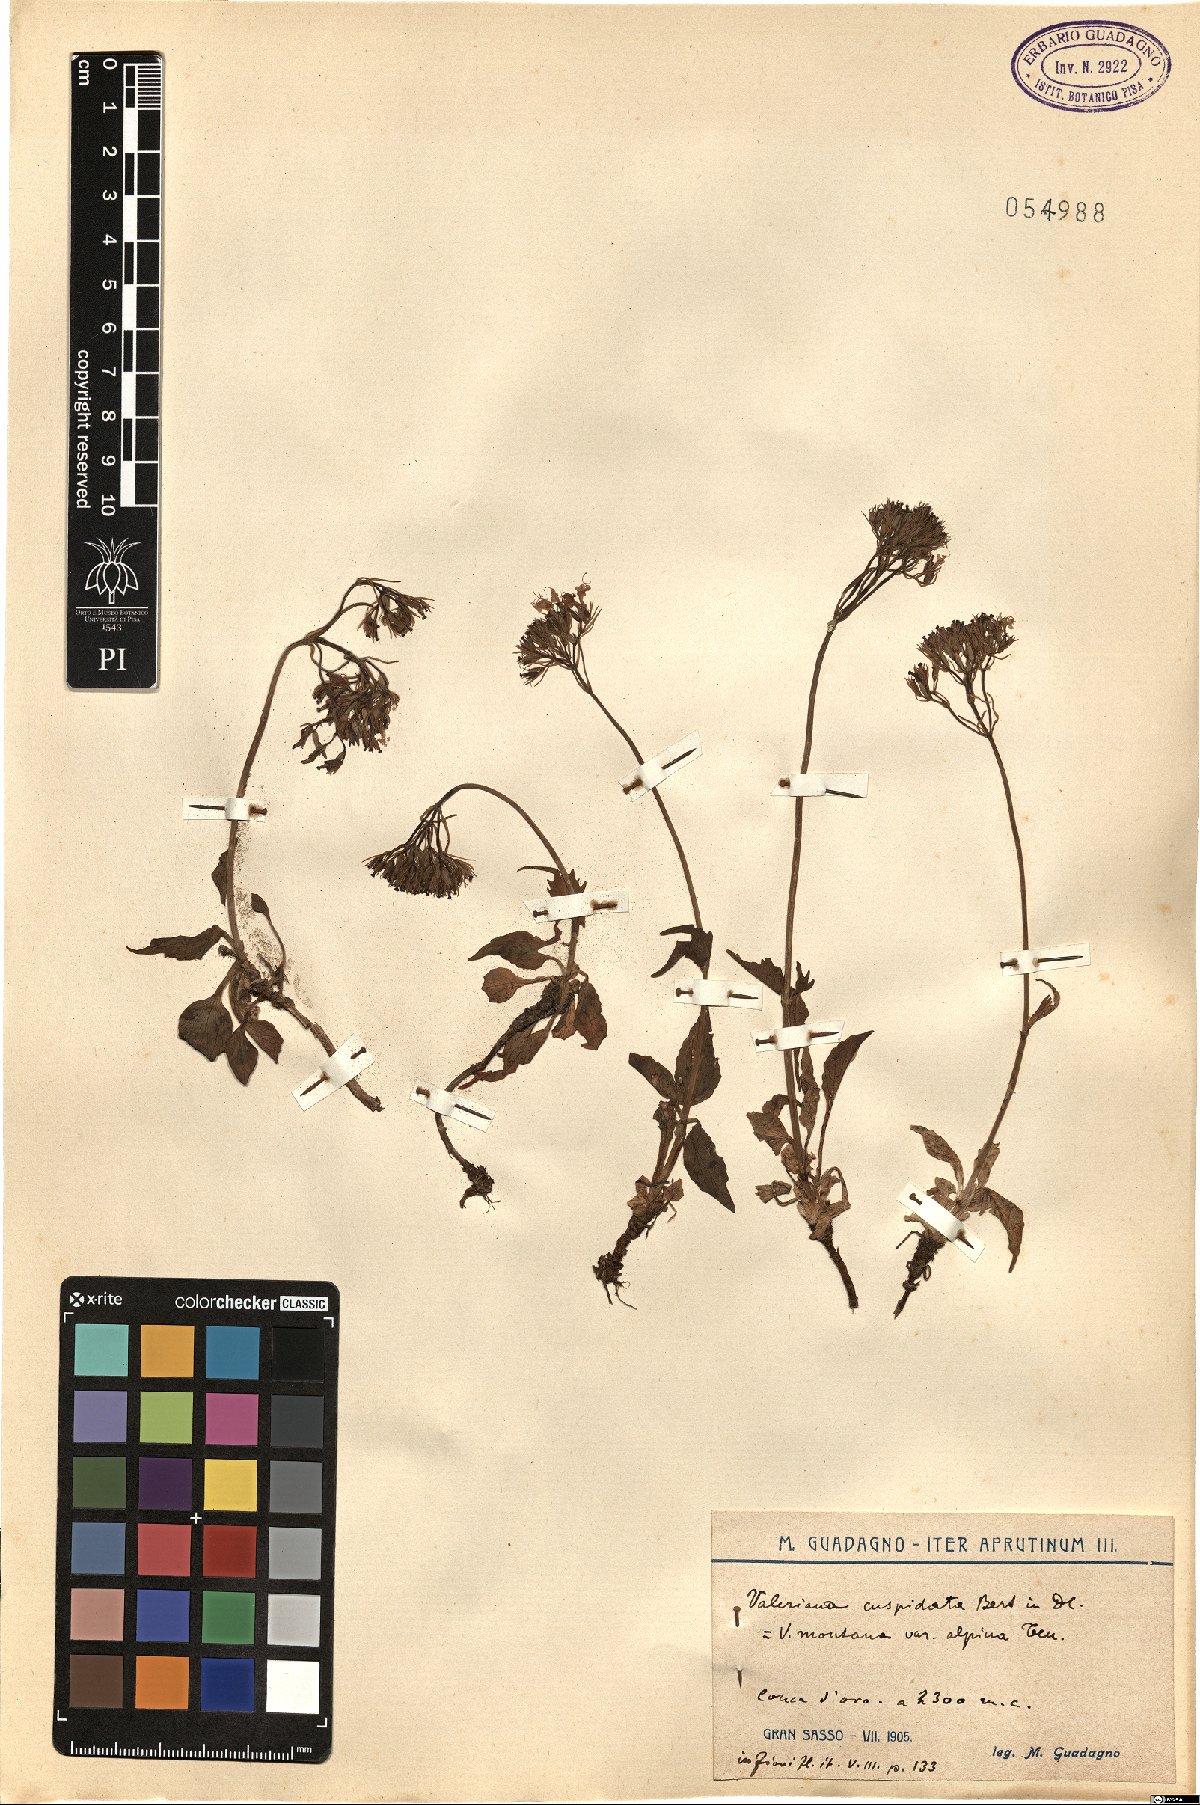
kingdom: Plantae
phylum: Tracheophyta
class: Magnoliopsida
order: Dipsacales
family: Caprifoliaceae
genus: Valeriana
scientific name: Valeriana montana
